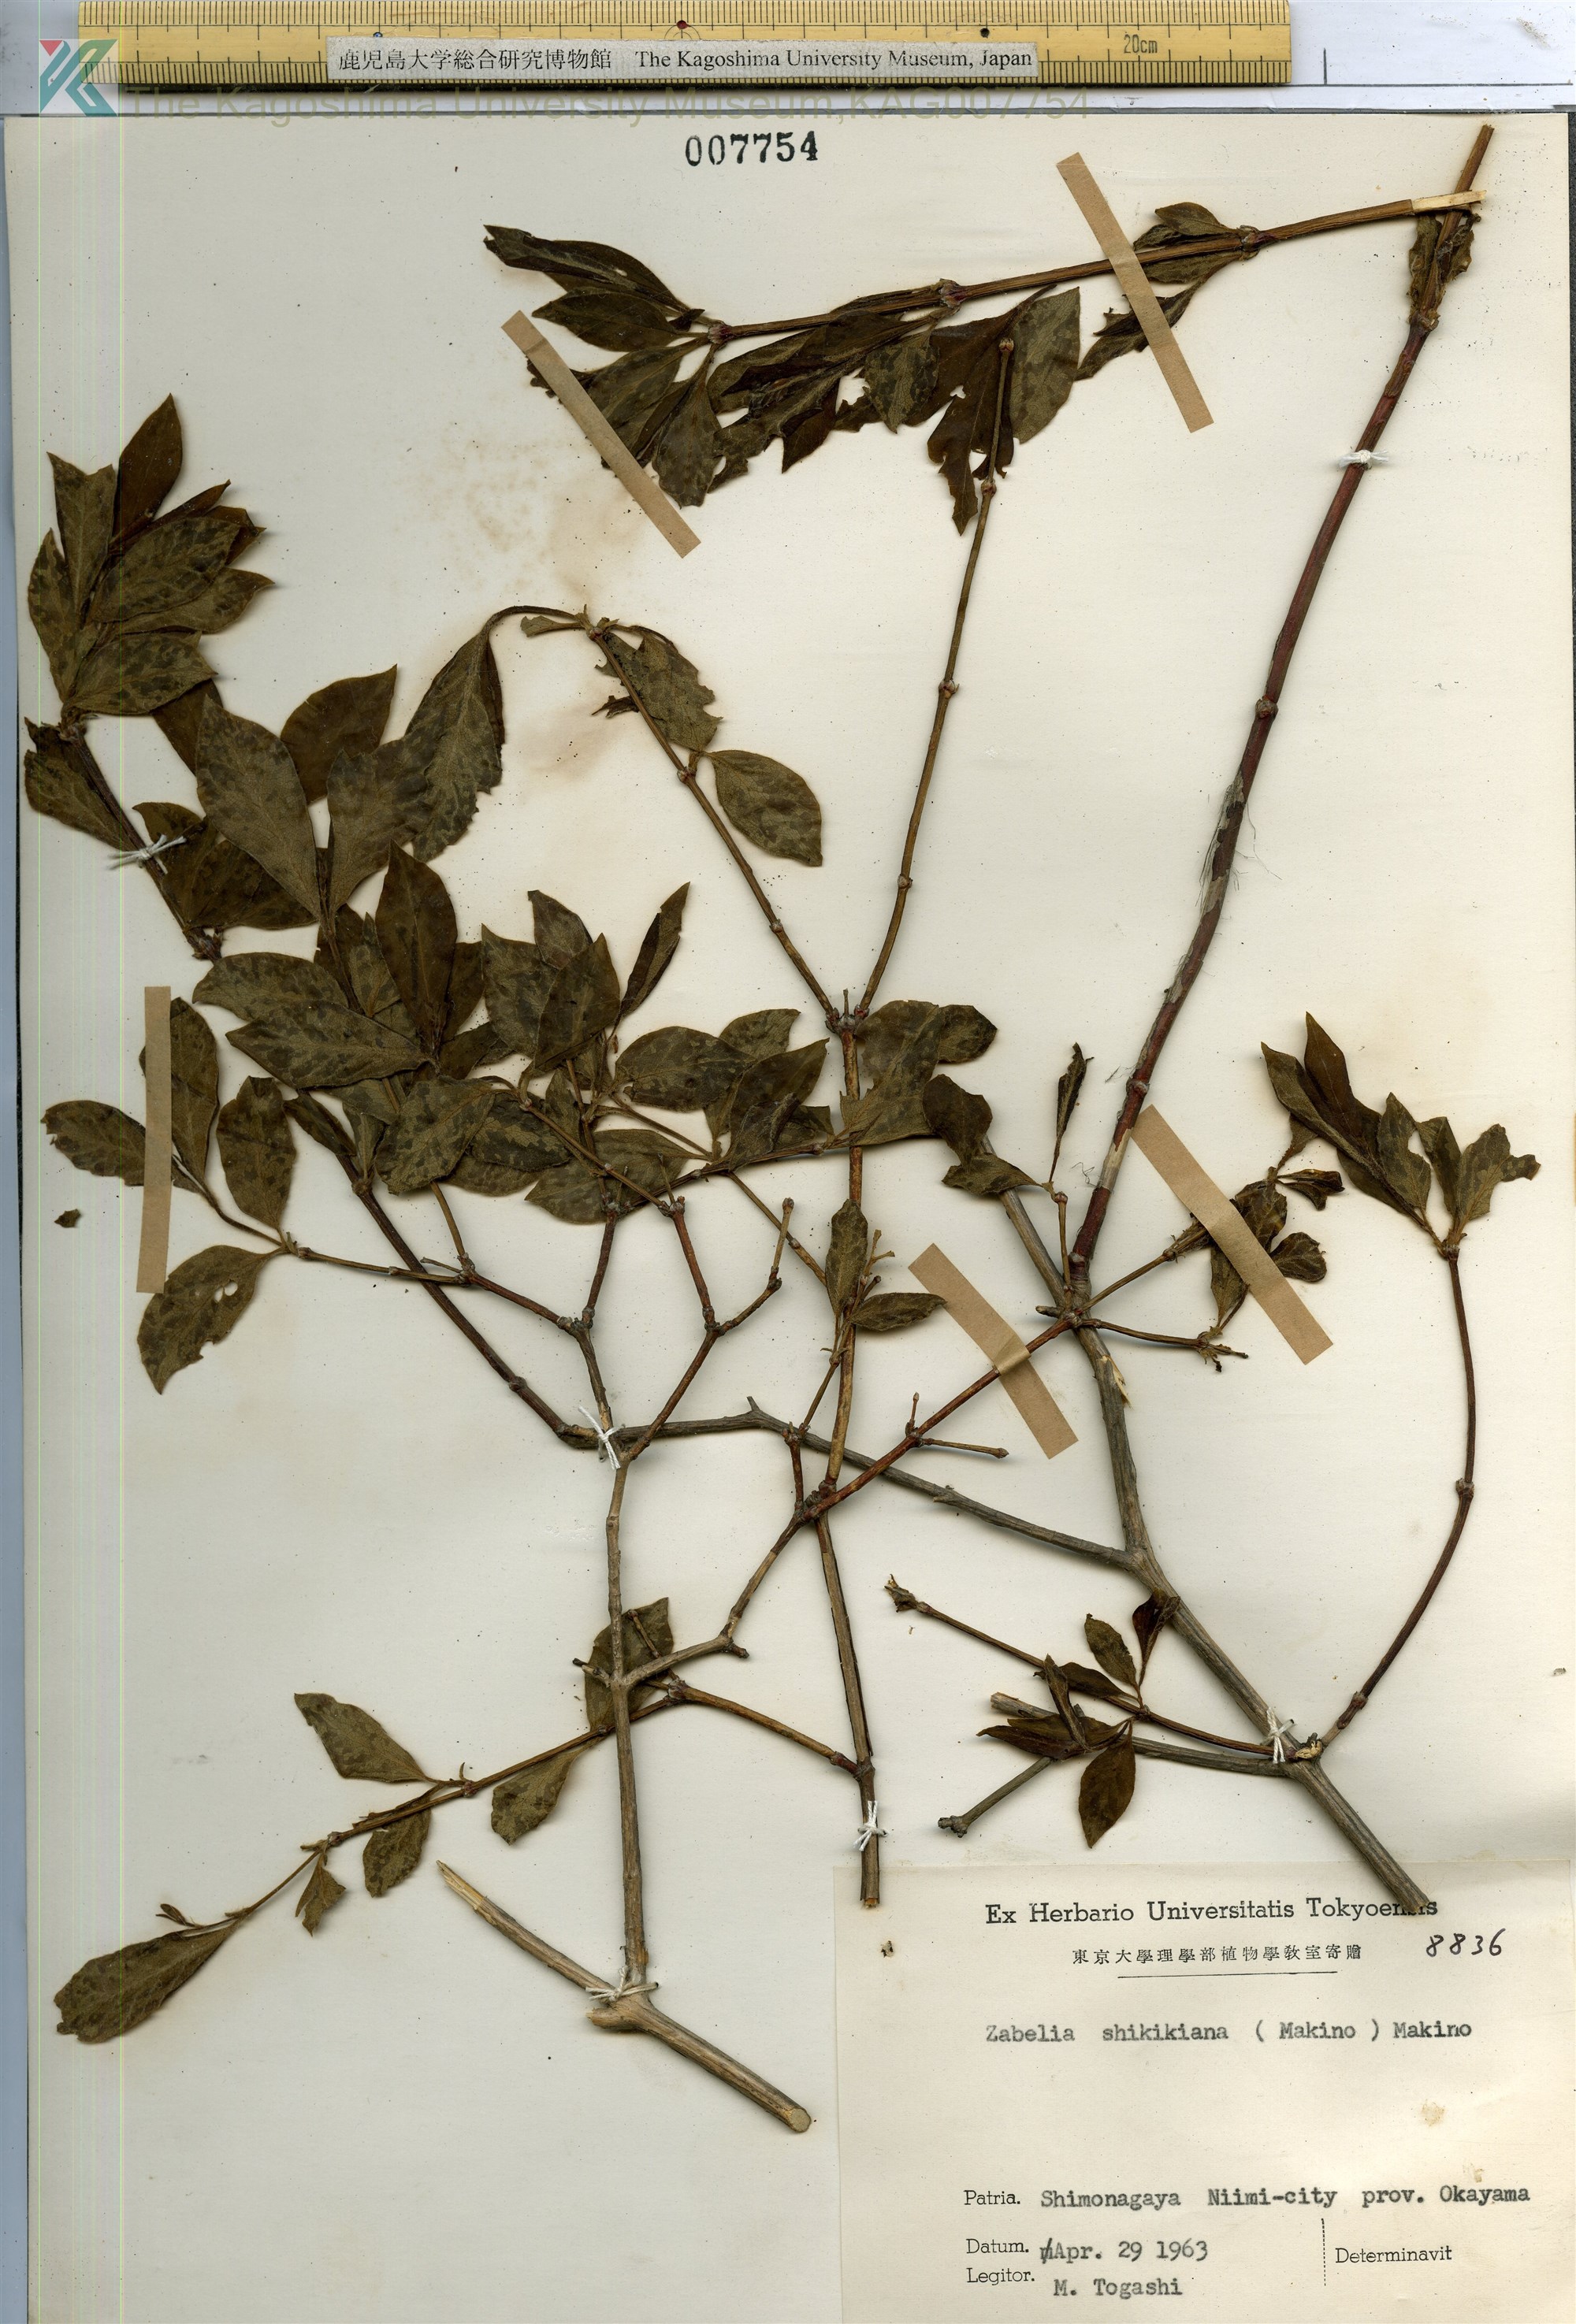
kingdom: Plantae
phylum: Tracheophyta
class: Magnoliopsida
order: Dipsacales
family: Caprifoliaceae
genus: Zabelia
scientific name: Zabelia integrifolia
